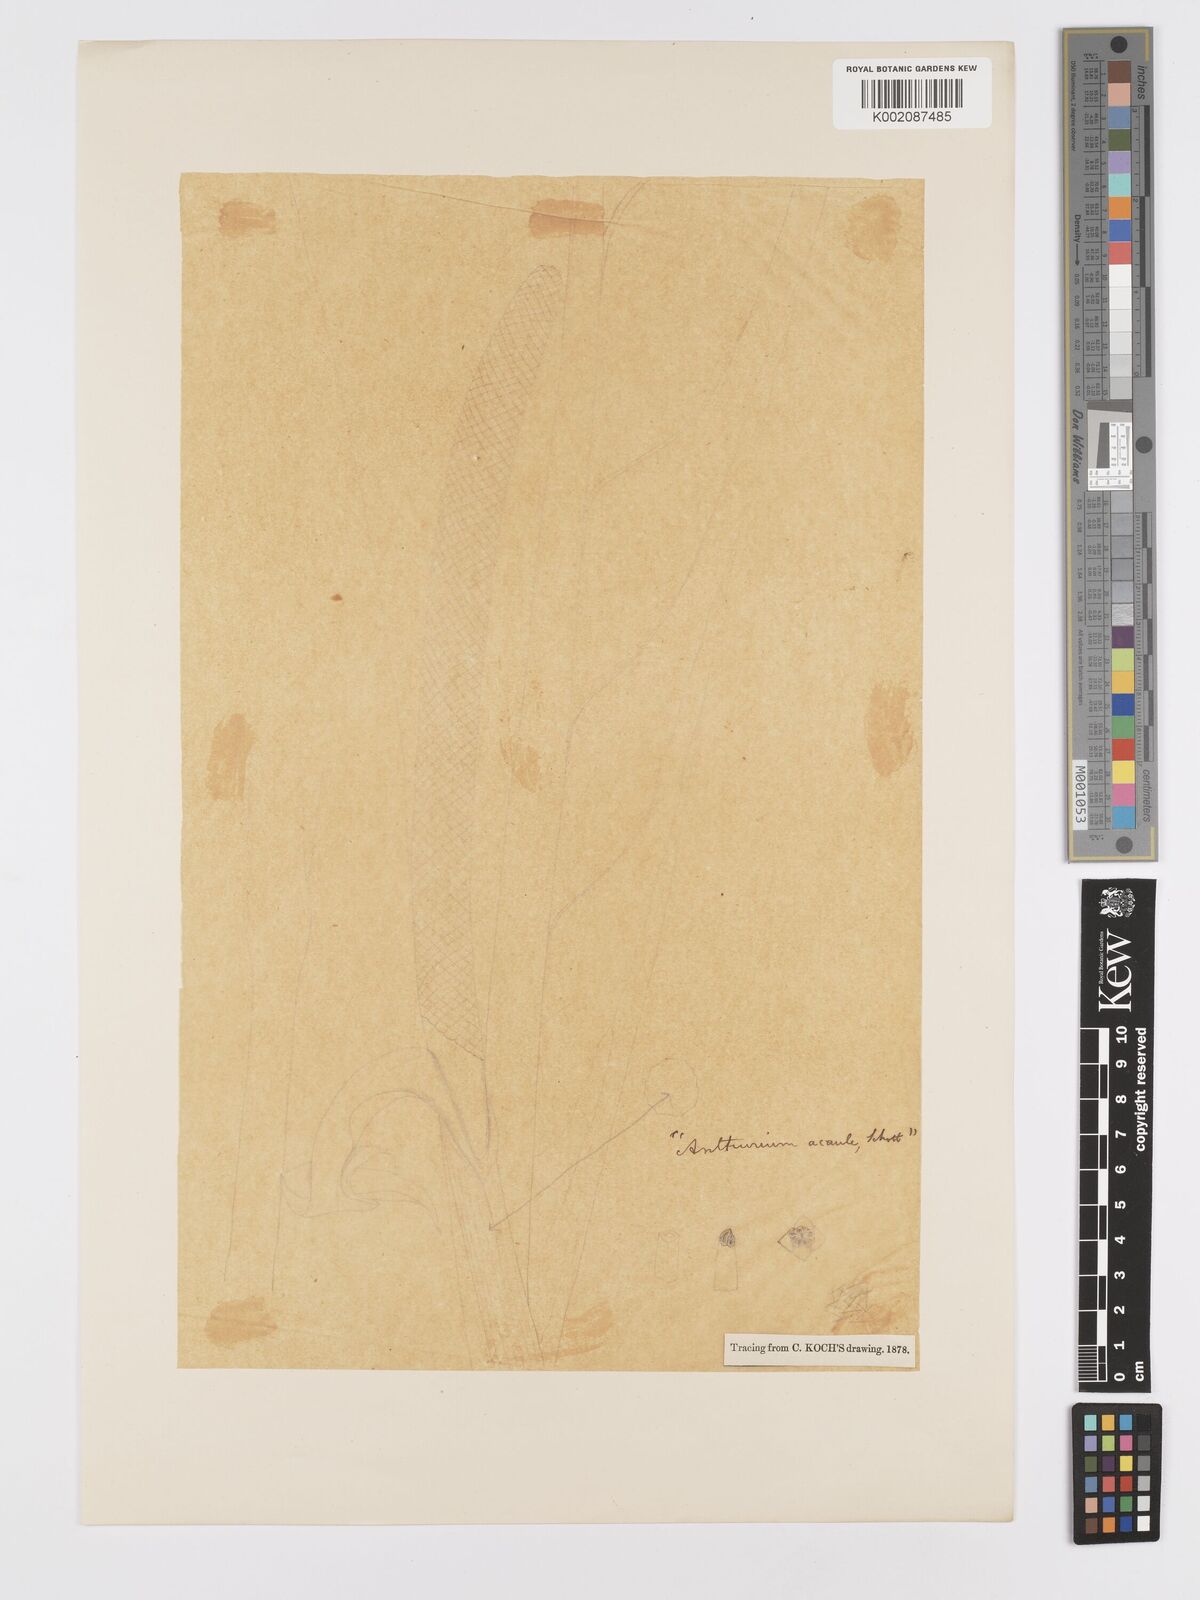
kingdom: Plantae
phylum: Tracheophyta
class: Liliopsida
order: Alismatales
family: Araceae
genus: Anthurium
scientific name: Anthurium crassinervium
